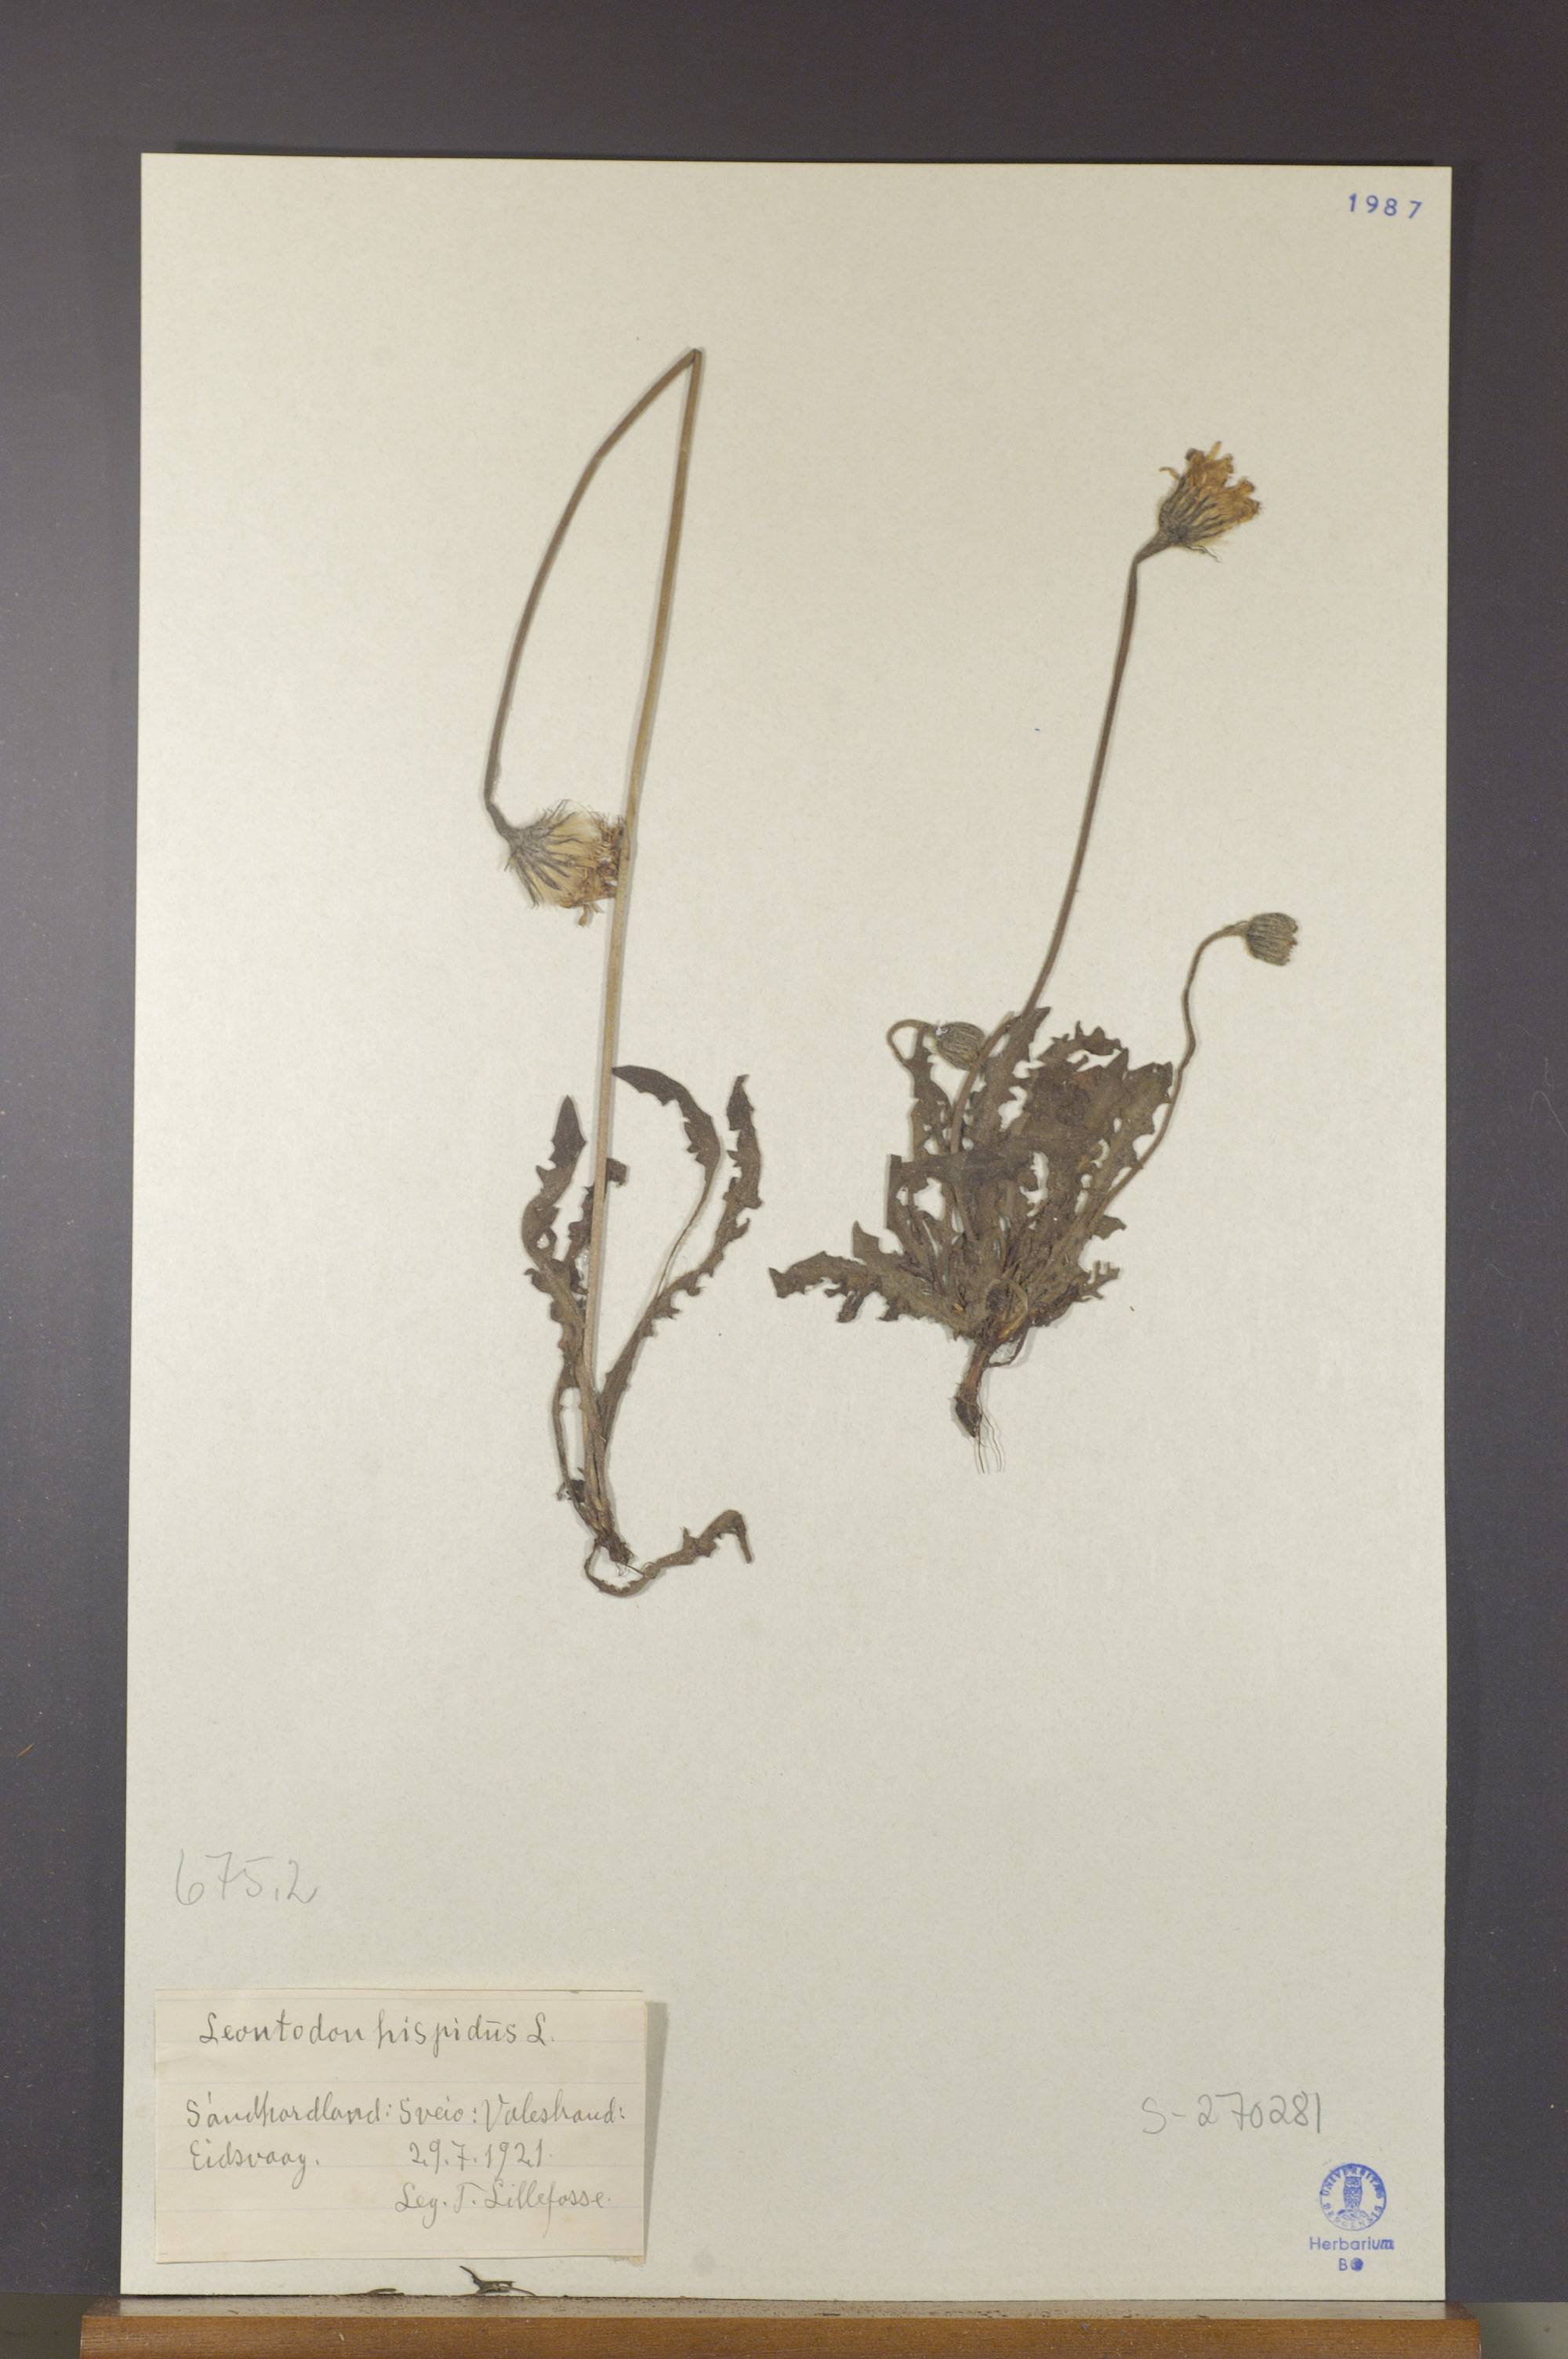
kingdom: Plantae
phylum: Tracheophyta
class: Magnoliopsida
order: Asterales
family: Asteraceae
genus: Leontodon
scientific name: Leontodon hispidus
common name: Rough hawkbit
